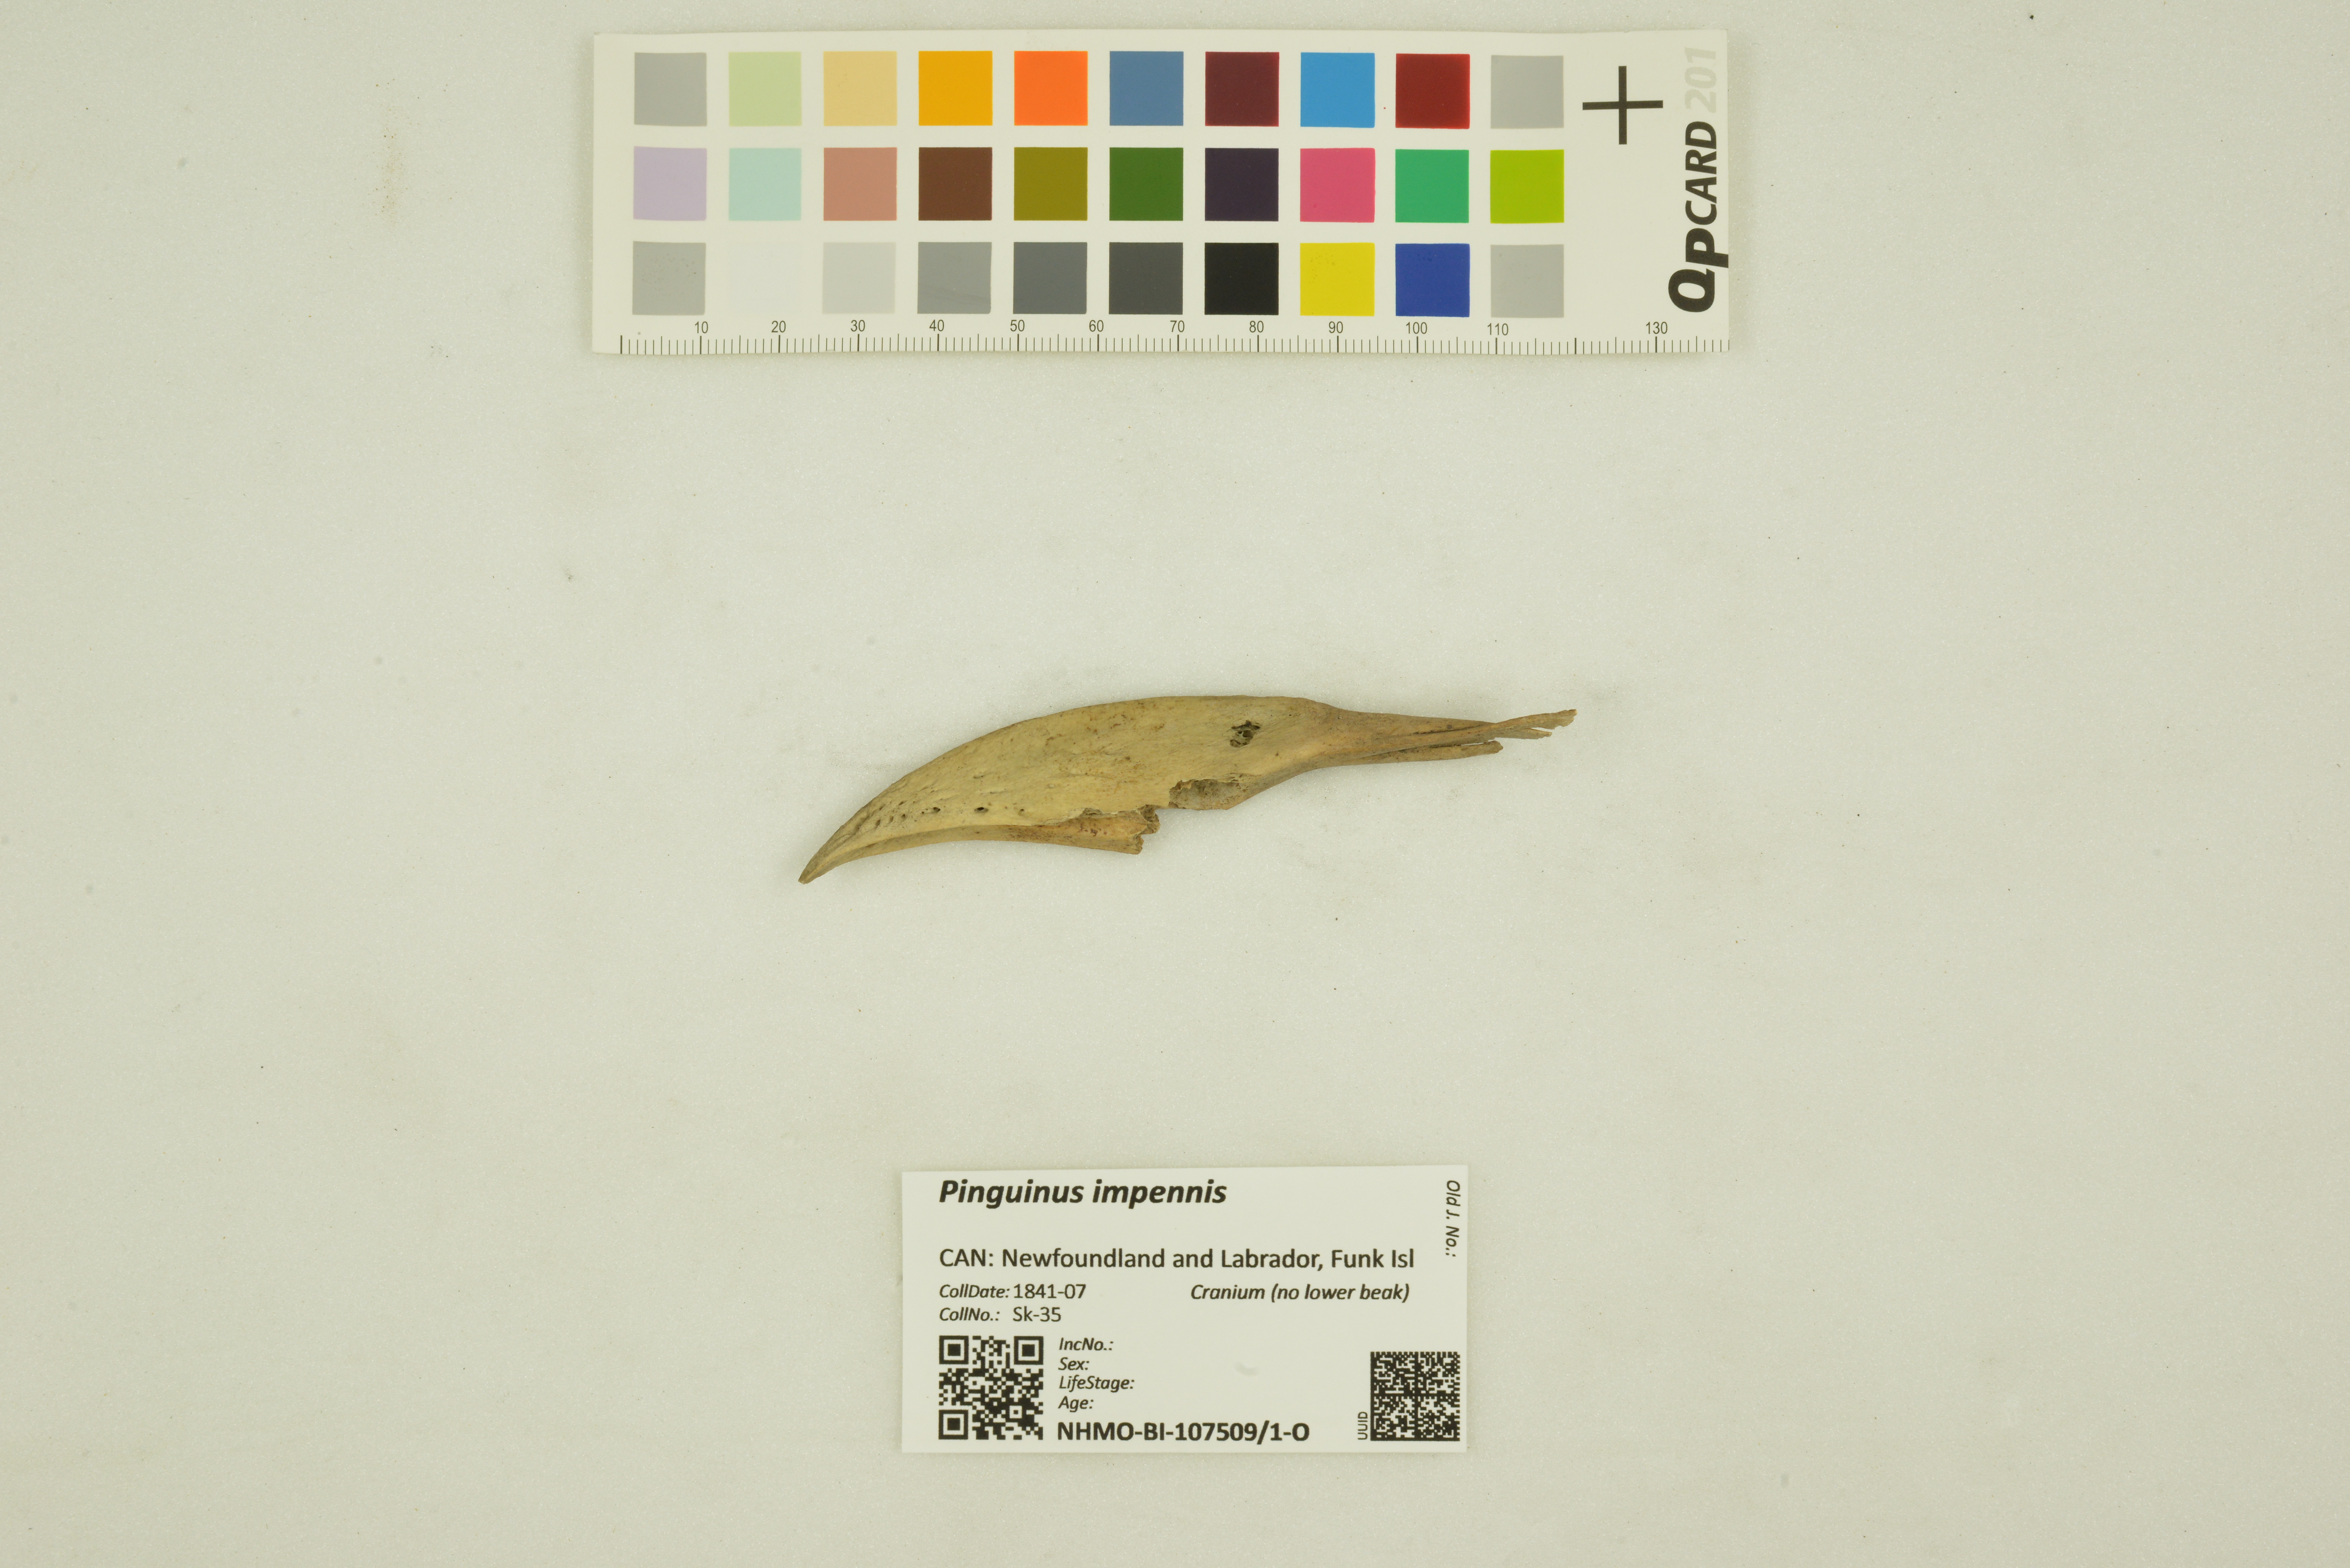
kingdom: Animalia
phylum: Chordata
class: Aves
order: Charadriiformes
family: Alcidae
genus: Pinguinus
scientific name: Pinguinus impennis
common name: Great auk
